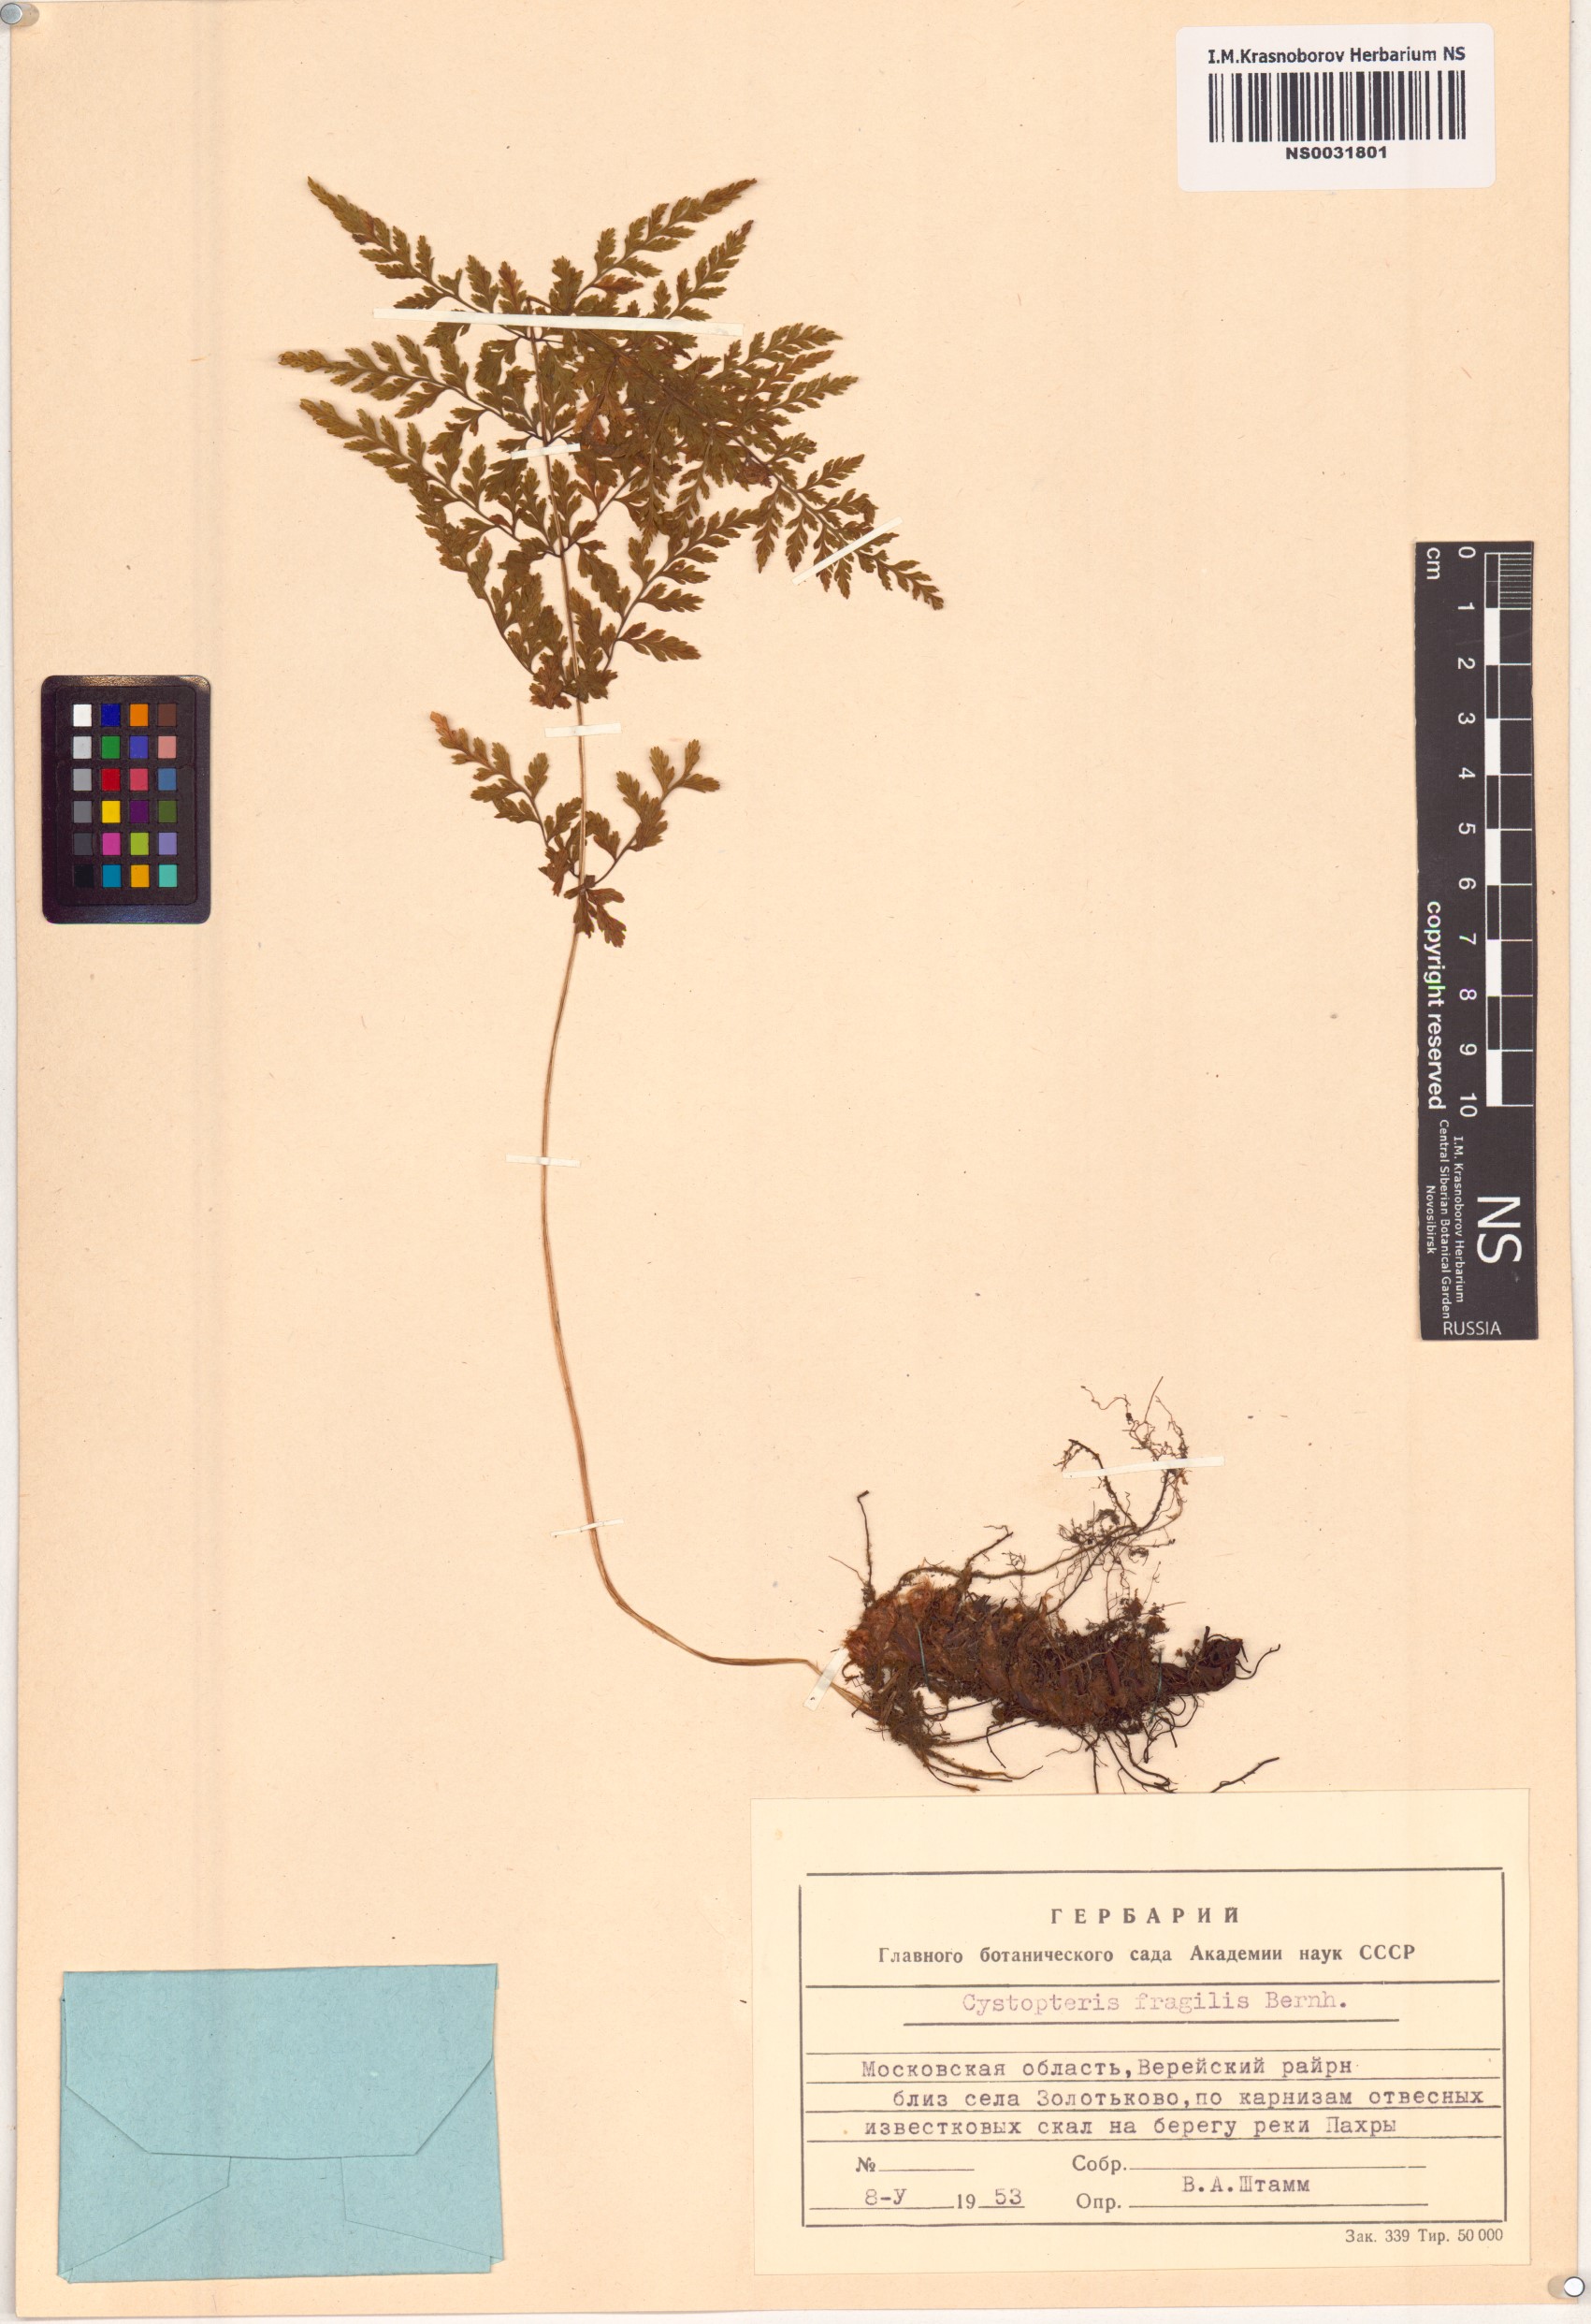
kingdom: Plantae
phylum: Tracheophyta
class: Polypodiopsida
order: Polypodiales
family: Cystopteridaceae
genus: Cystopteris
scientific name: Cystopteris fragilis
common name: Brittle bladder fern
